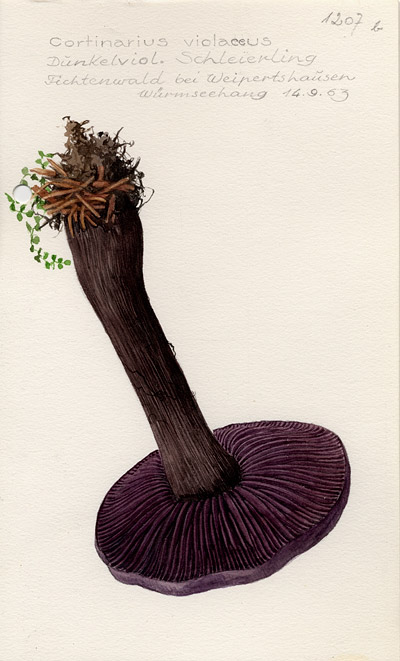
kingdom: Fungi
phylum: Basidiomycota
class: Agaricomycetes
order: Agaricales
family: Cortinariaceae
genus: Cortinarius
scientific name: Cortinarius violaceus
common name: Violet webcap
